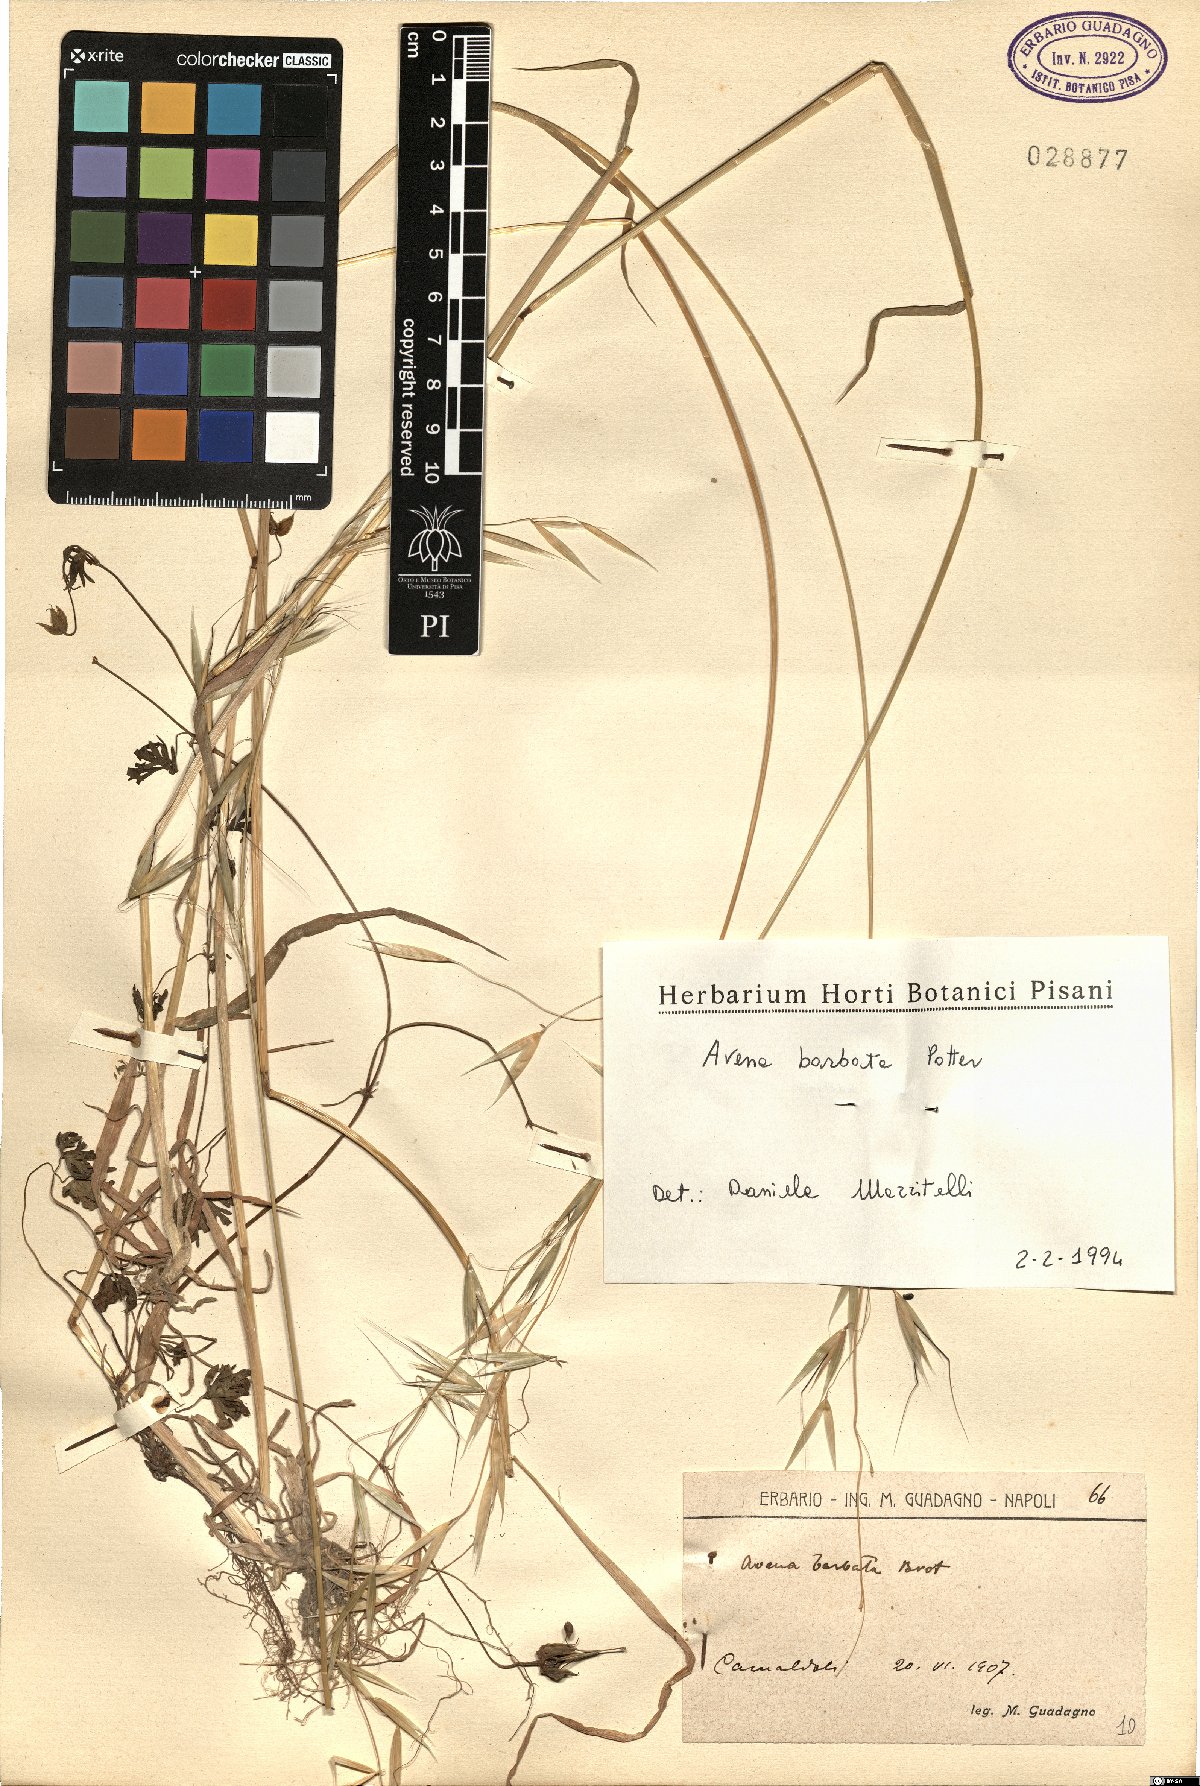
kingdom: Plantae
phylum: Tracheophyta
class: Liliopsida
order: Poales
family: Poaceae
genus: Avena
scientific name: Avena barbata
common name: Slender oat
